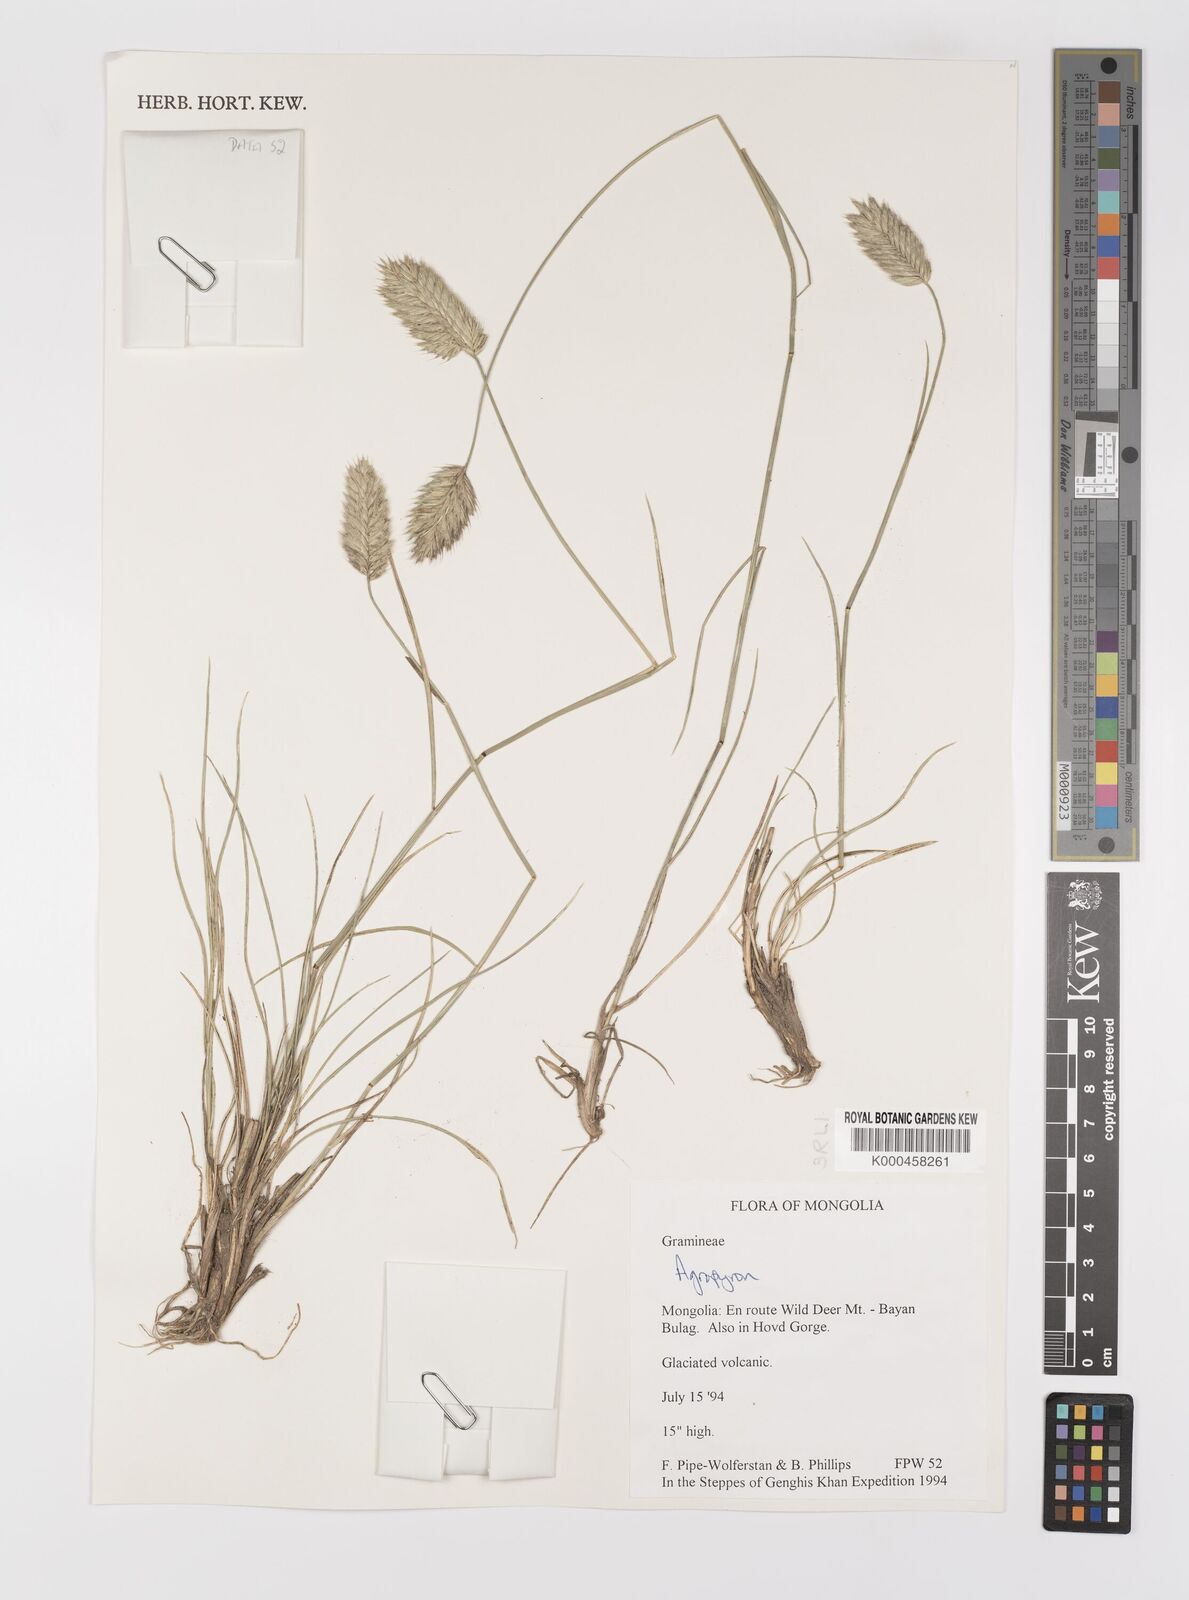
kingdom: Plantae
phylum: Tracheophyta
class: Liliopsida
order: Poales
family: Poaceae
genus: Agropyron
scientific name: Agropyron michnoi
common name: Michno's wheatgrass
